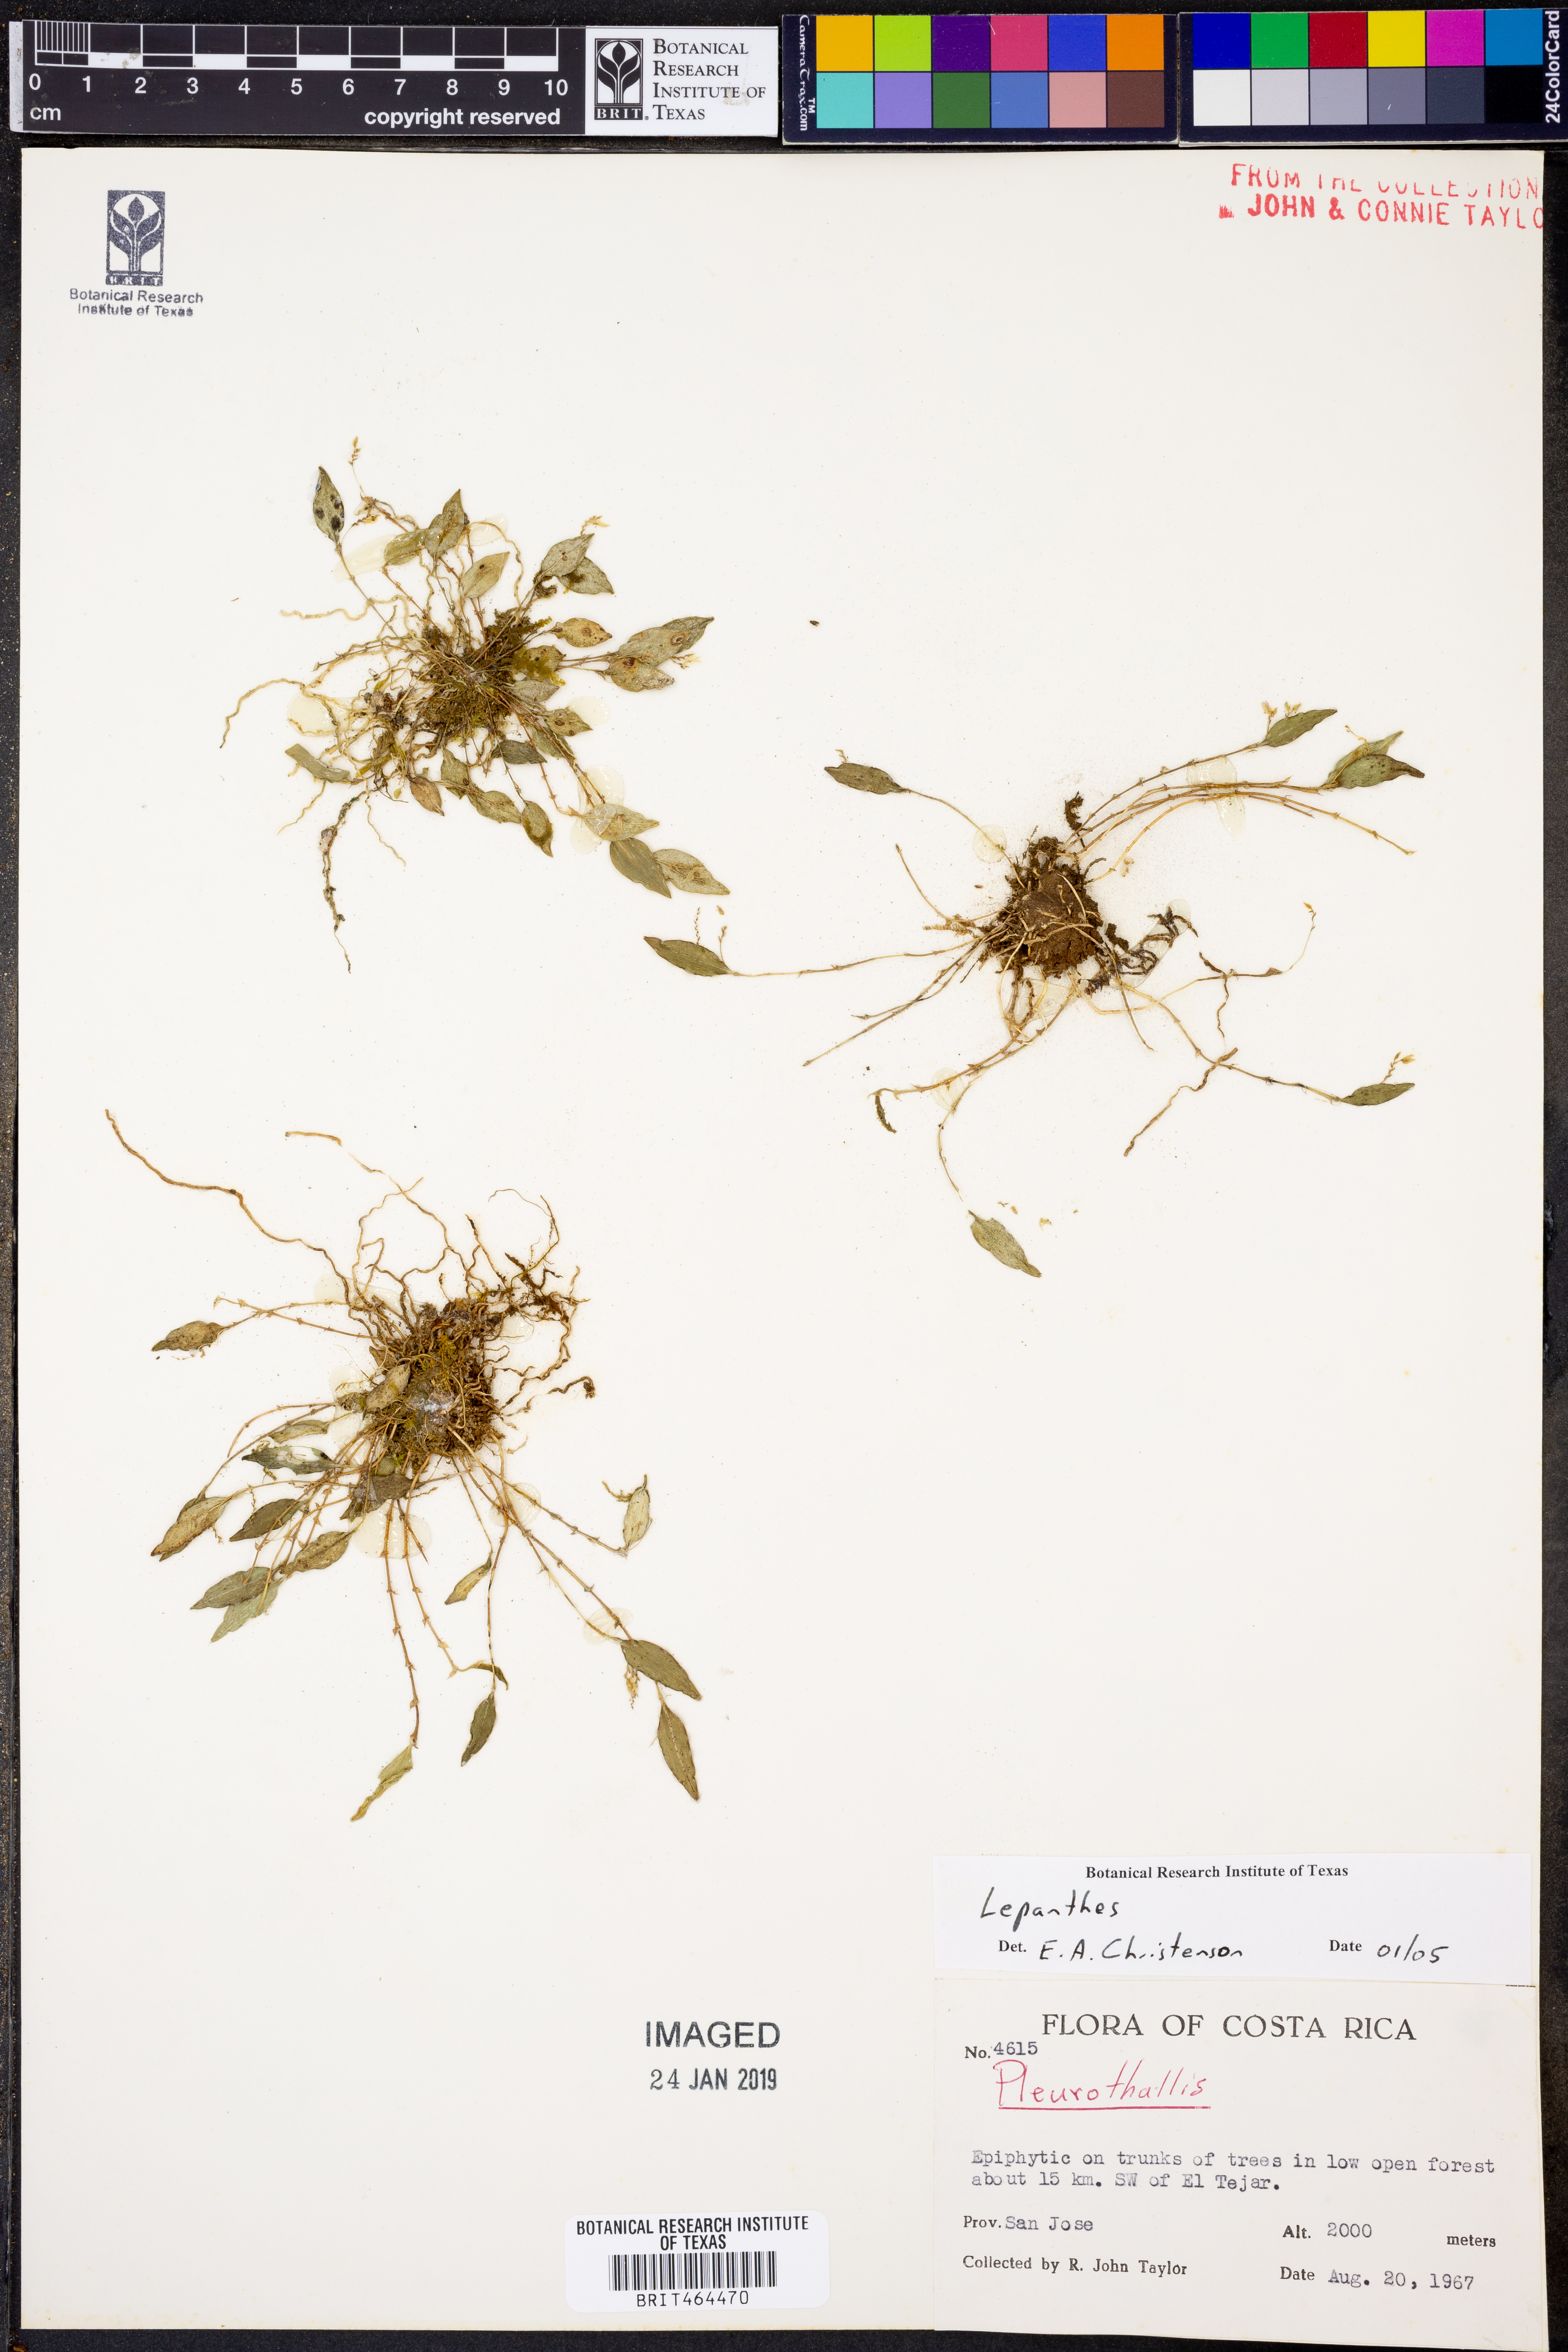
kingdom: Plantae
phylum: Tracheophyta
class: Liliopsida
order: Asparagales
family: Orchidaceae
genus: Lepanthes
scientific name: Lepanthes
